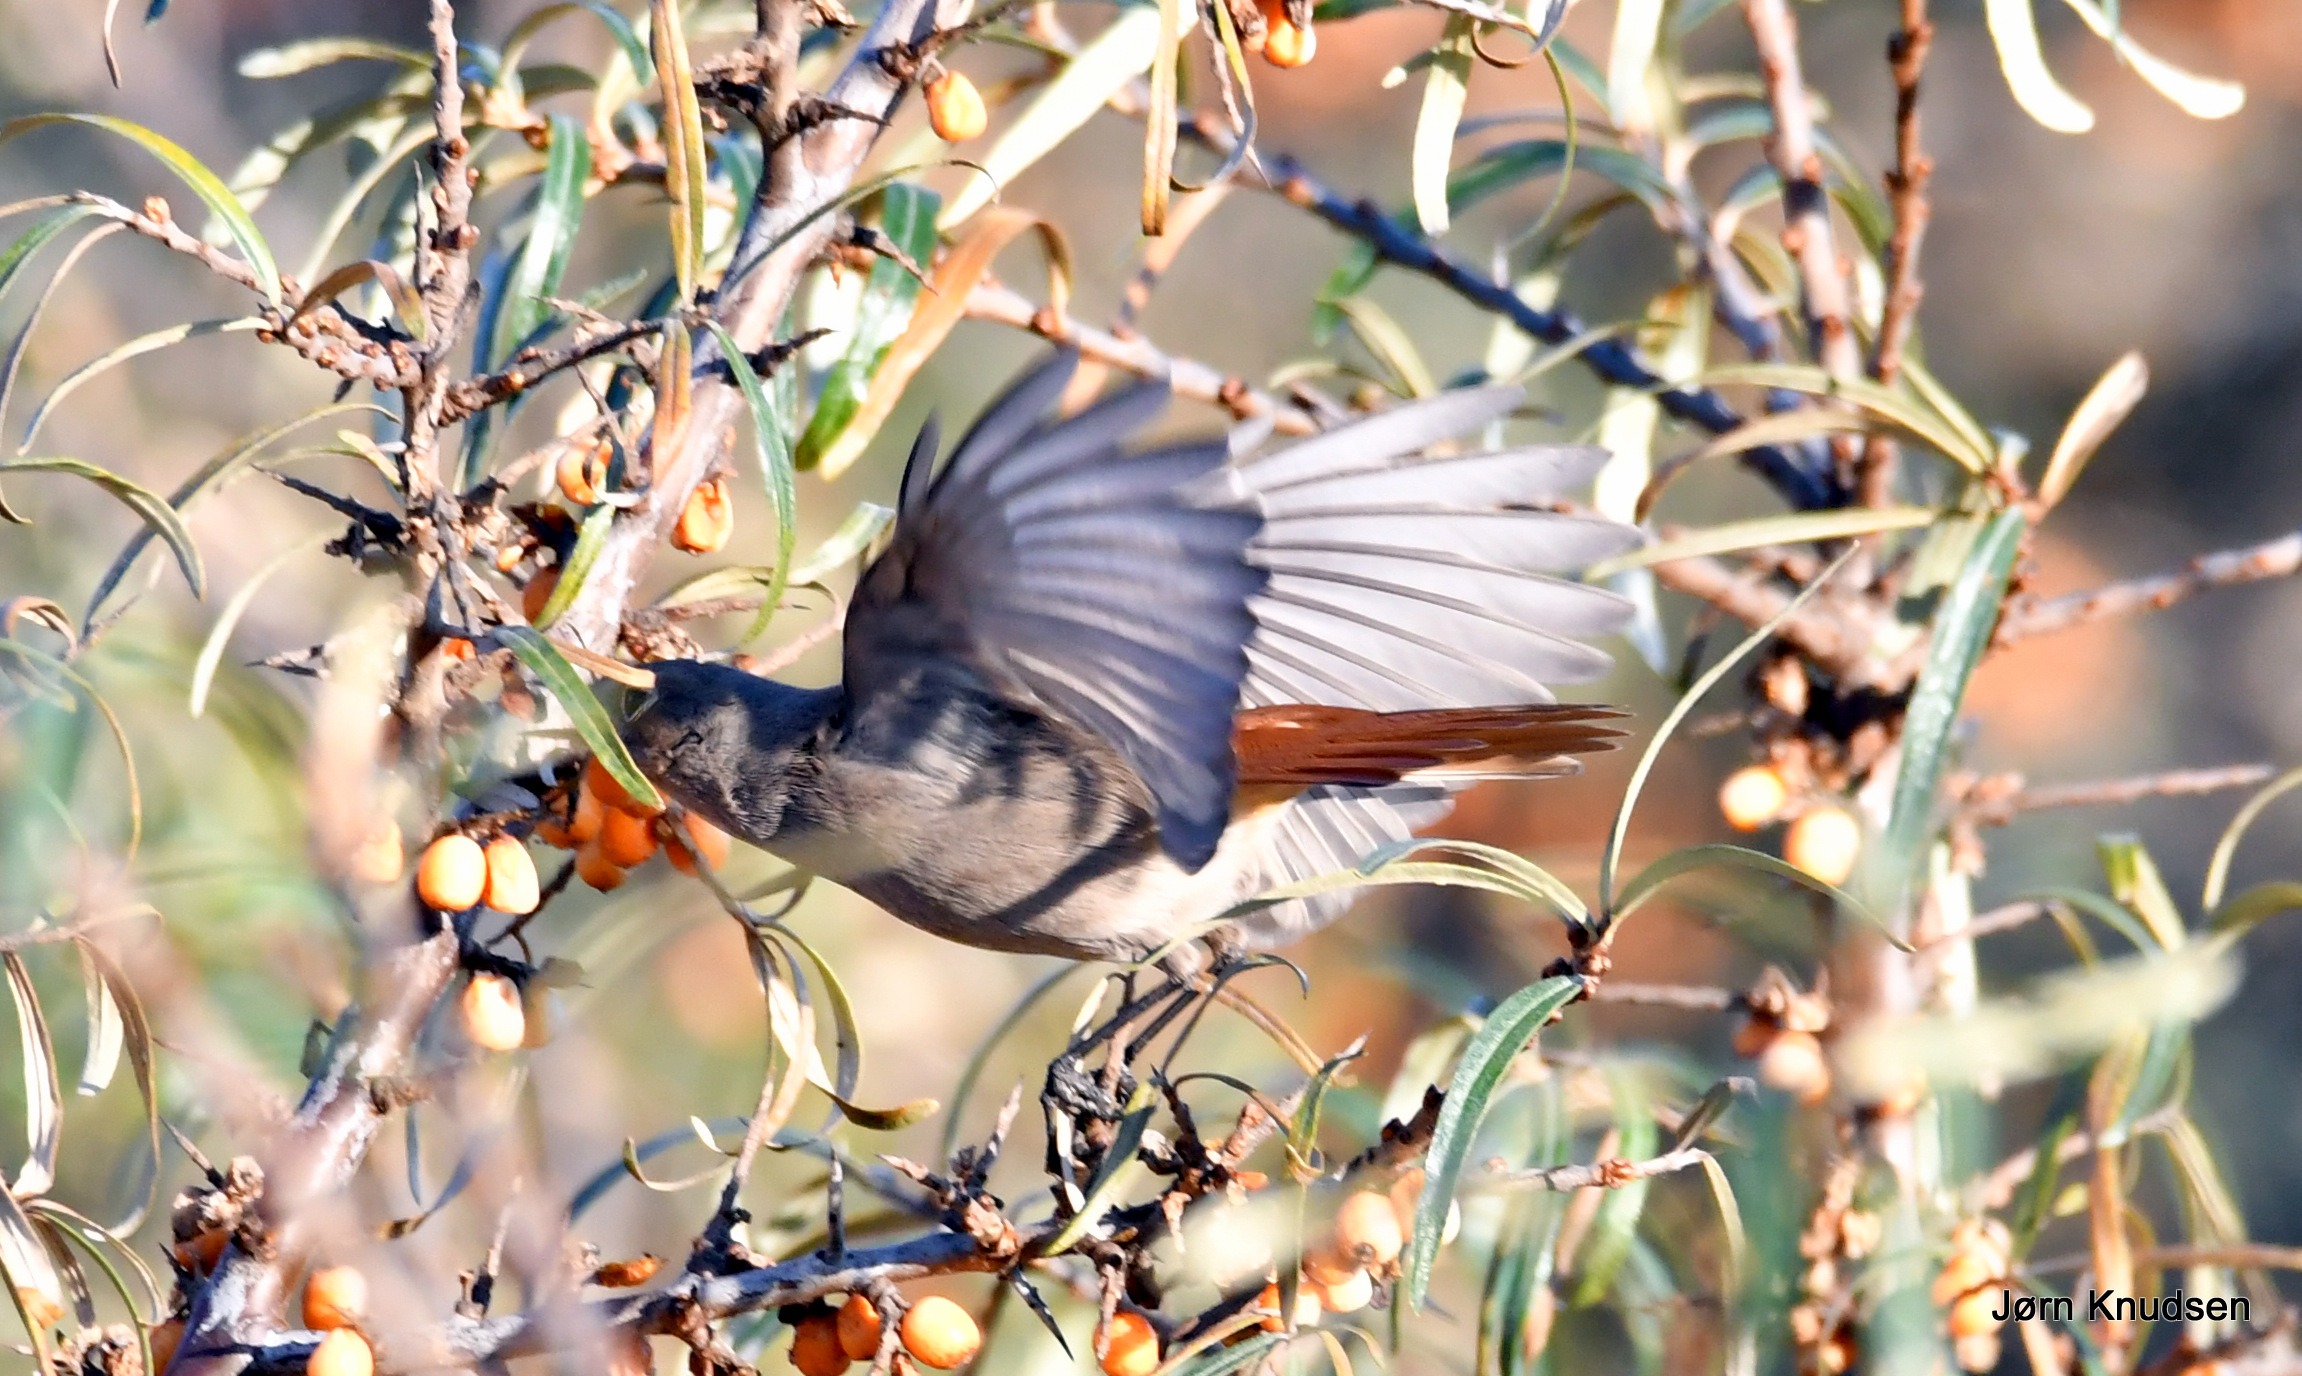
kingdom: Animalia
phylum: Chordata
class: Aves
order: Passeriformes
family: Muscicapidae
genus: Phoenicurus
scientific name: Phoenicurus ochruros
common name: Husrødstjert
